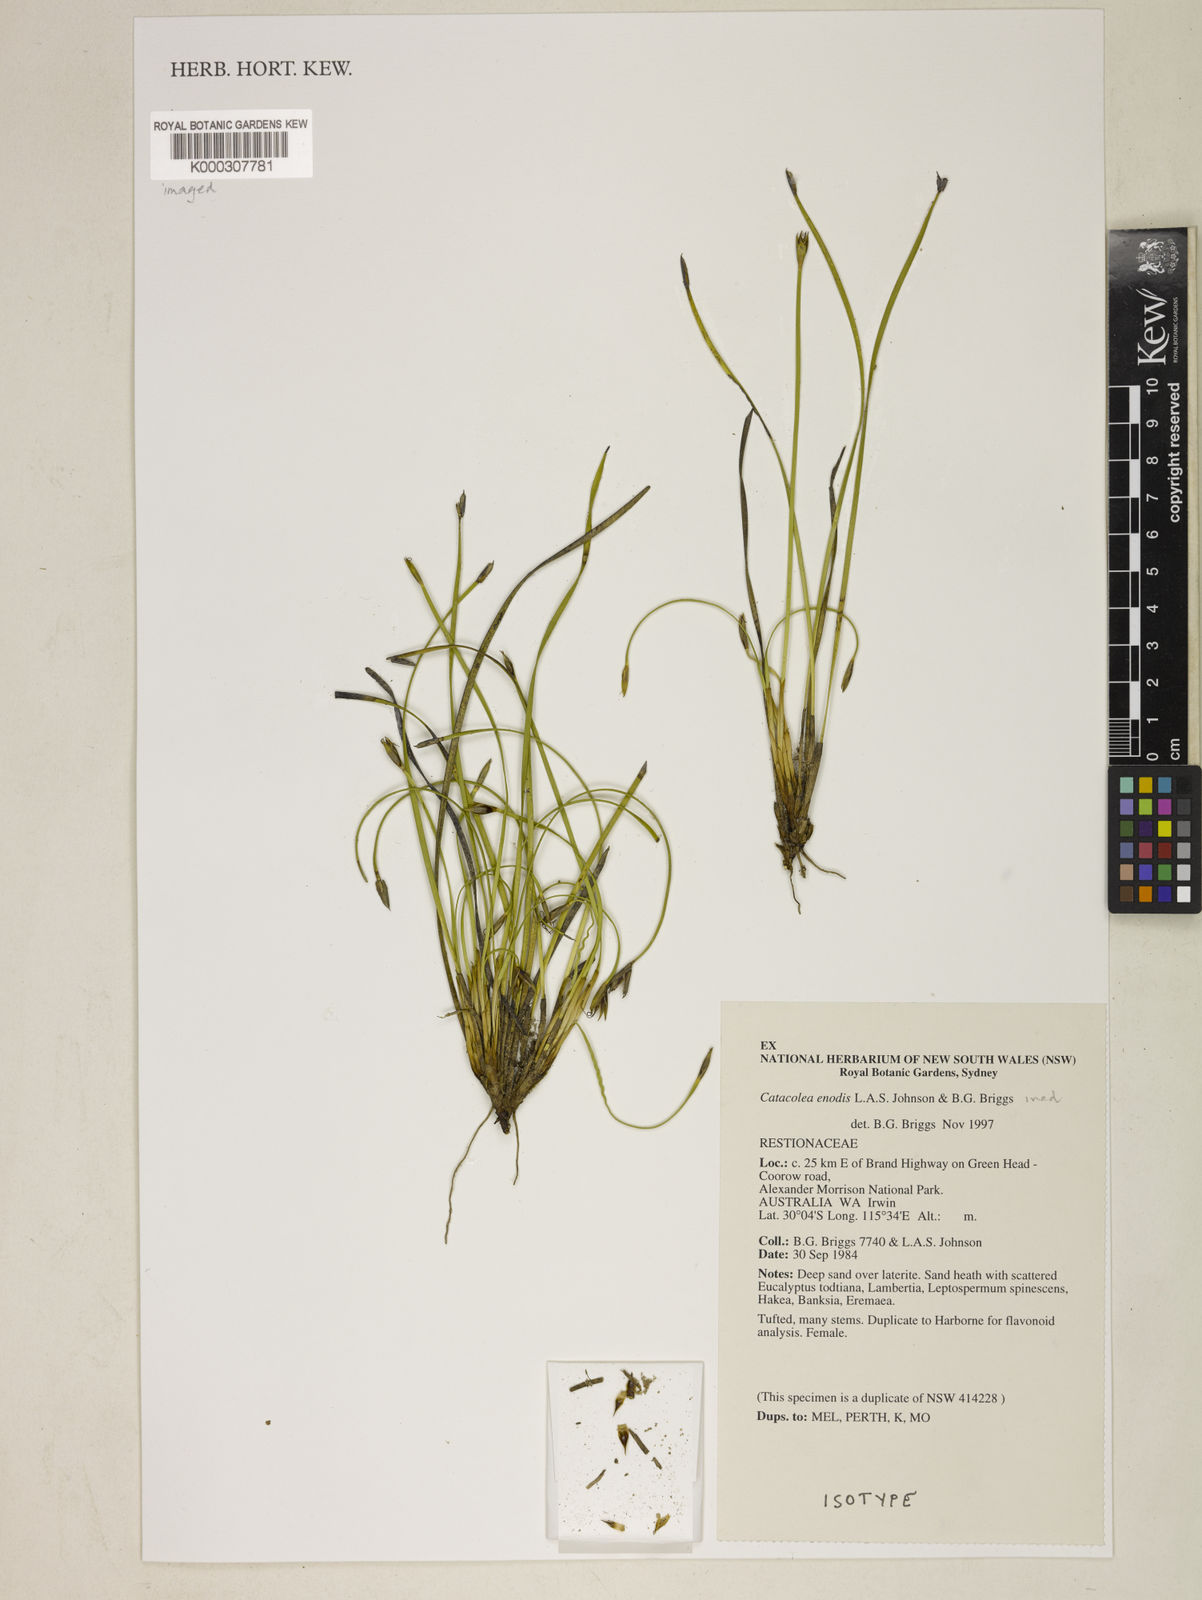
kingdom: Plantae
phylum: Tracheophyta
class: Liliopsida
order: Poales
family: Restionaceae
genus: Catacolea
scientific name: Catacolea enodis
